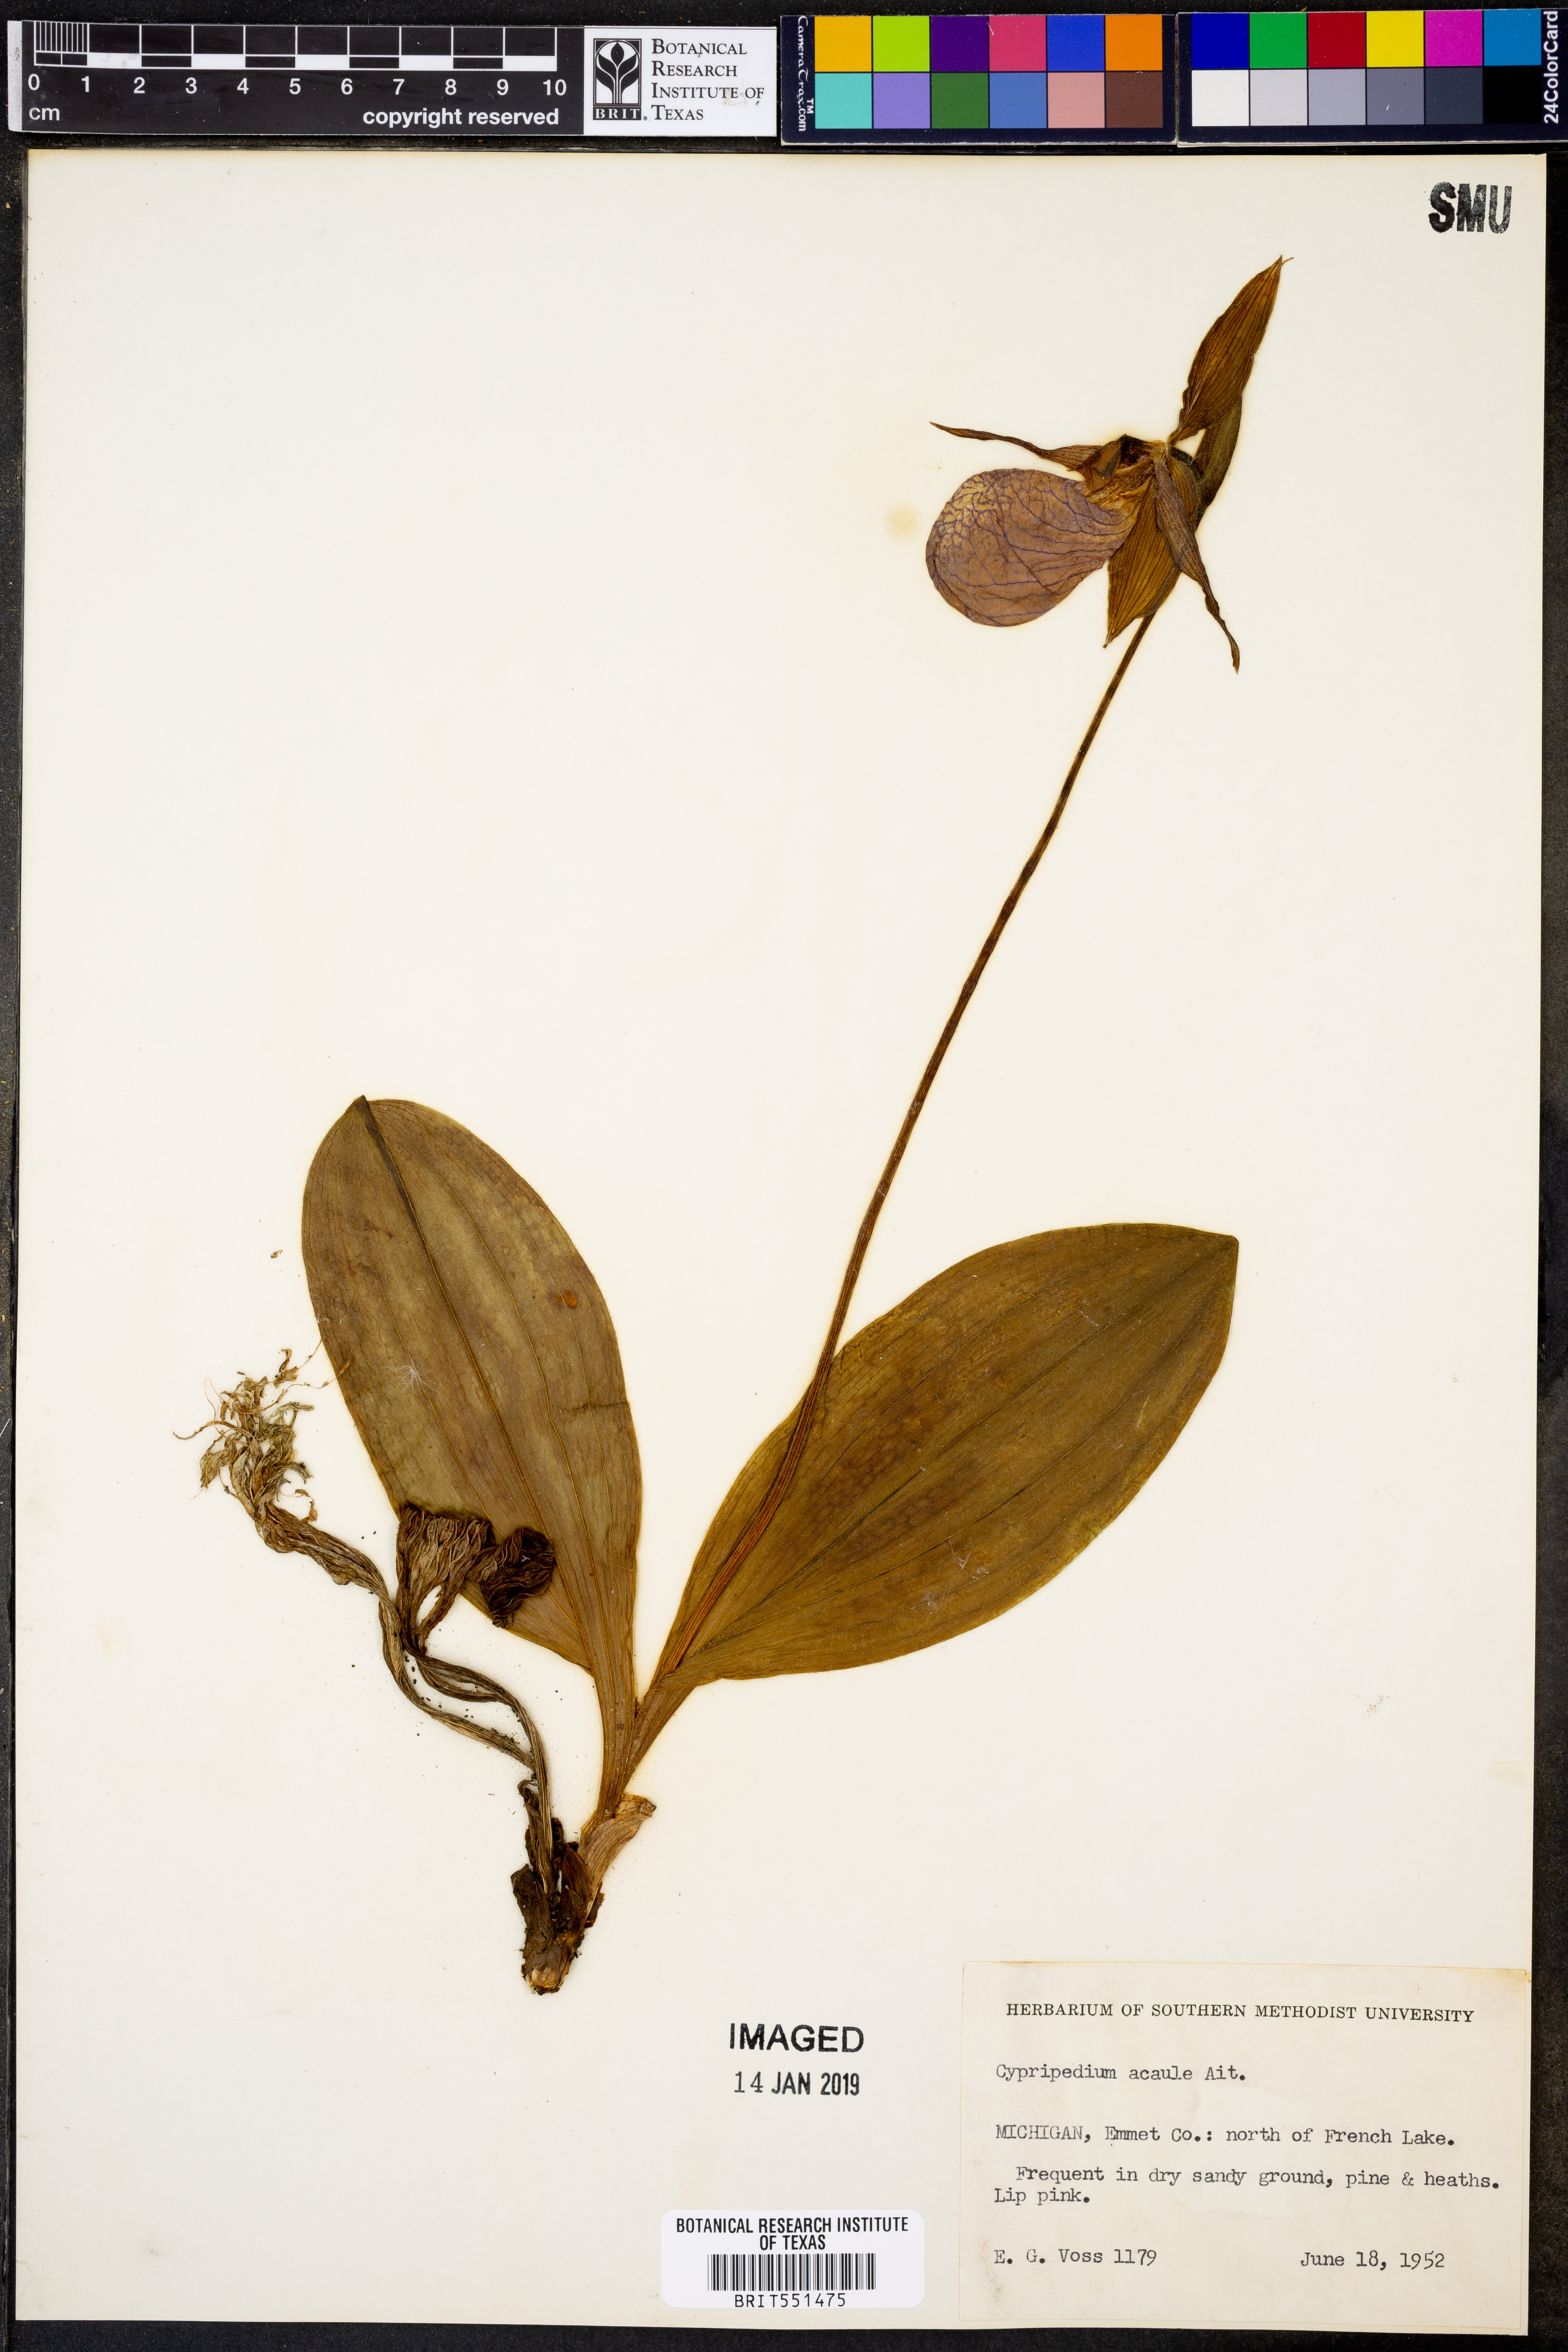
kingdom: Plantae
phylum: Tracheophyta
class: Liliopsida
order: Asparagales
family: Orchidaceae
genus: Cypripedium
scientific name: Cypripedium acaule
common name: Pink lady's-slipper
